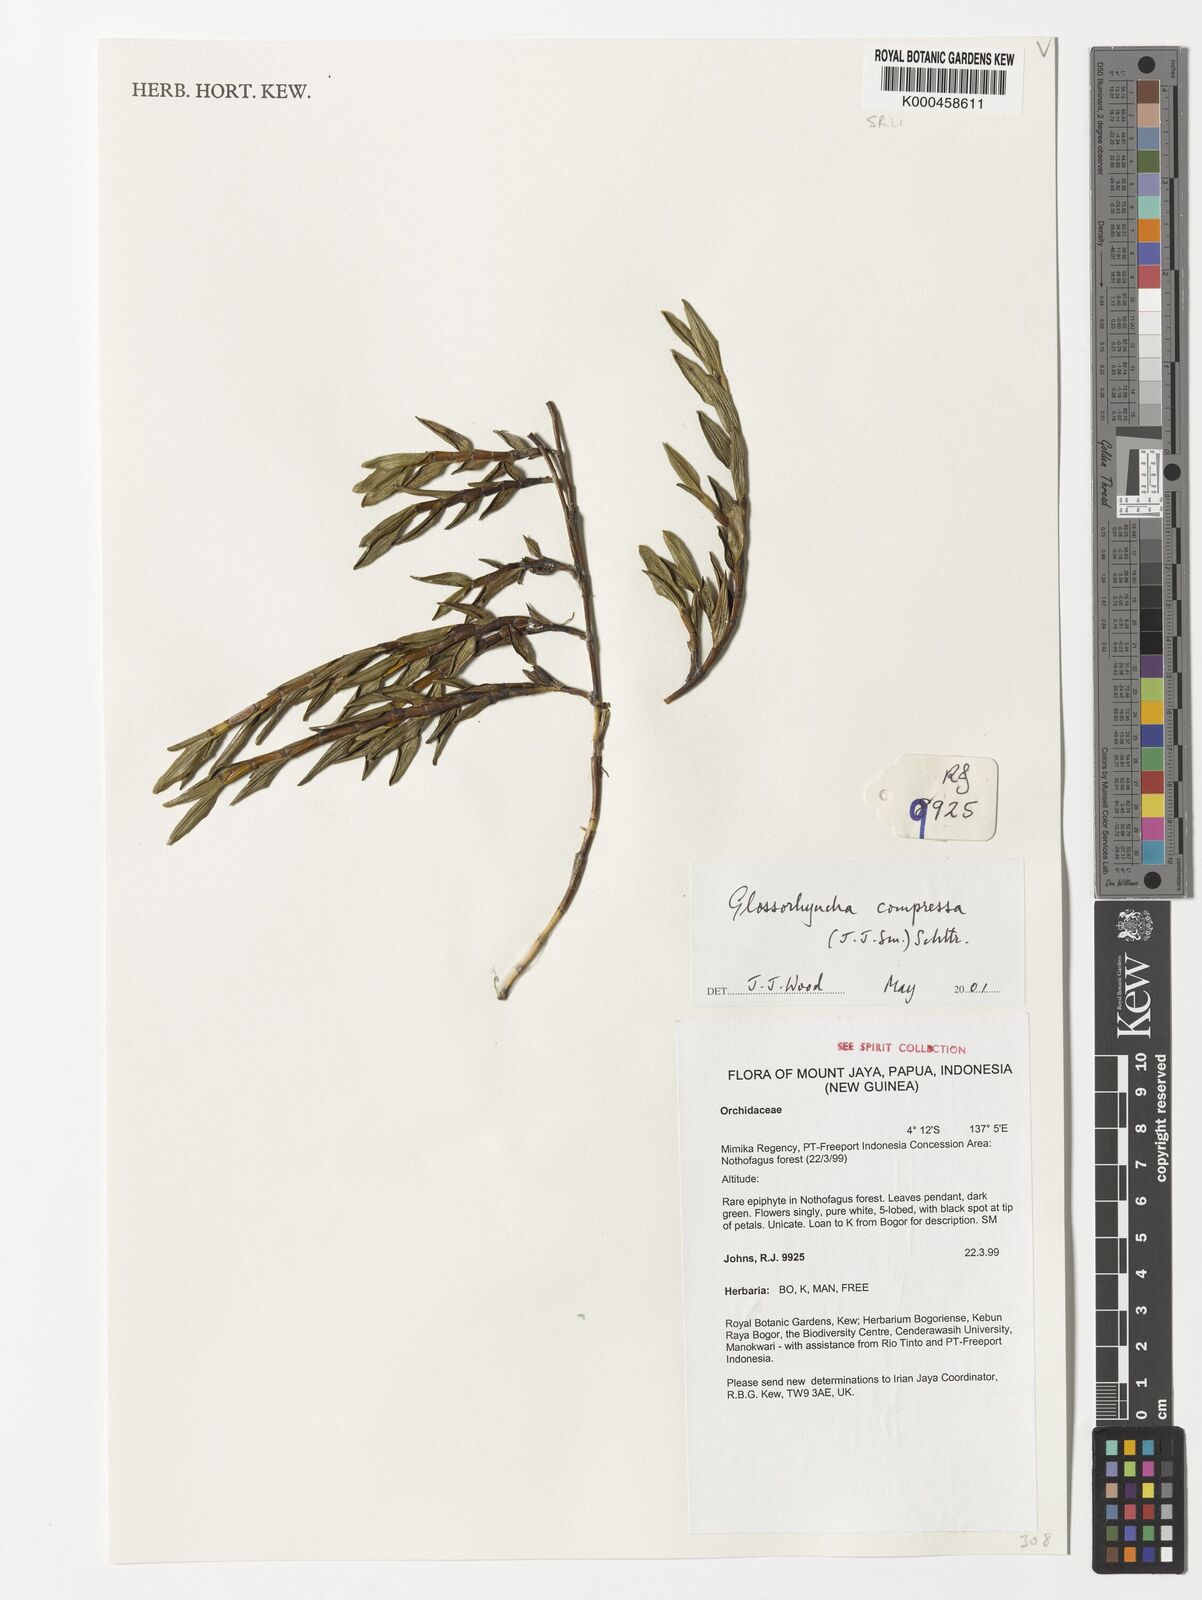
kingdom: Plantae
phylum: Tracheophyta
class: Liliopsida
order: Asparagales
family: Orchidaceae
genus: Glomera
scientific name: Glomera compressa
